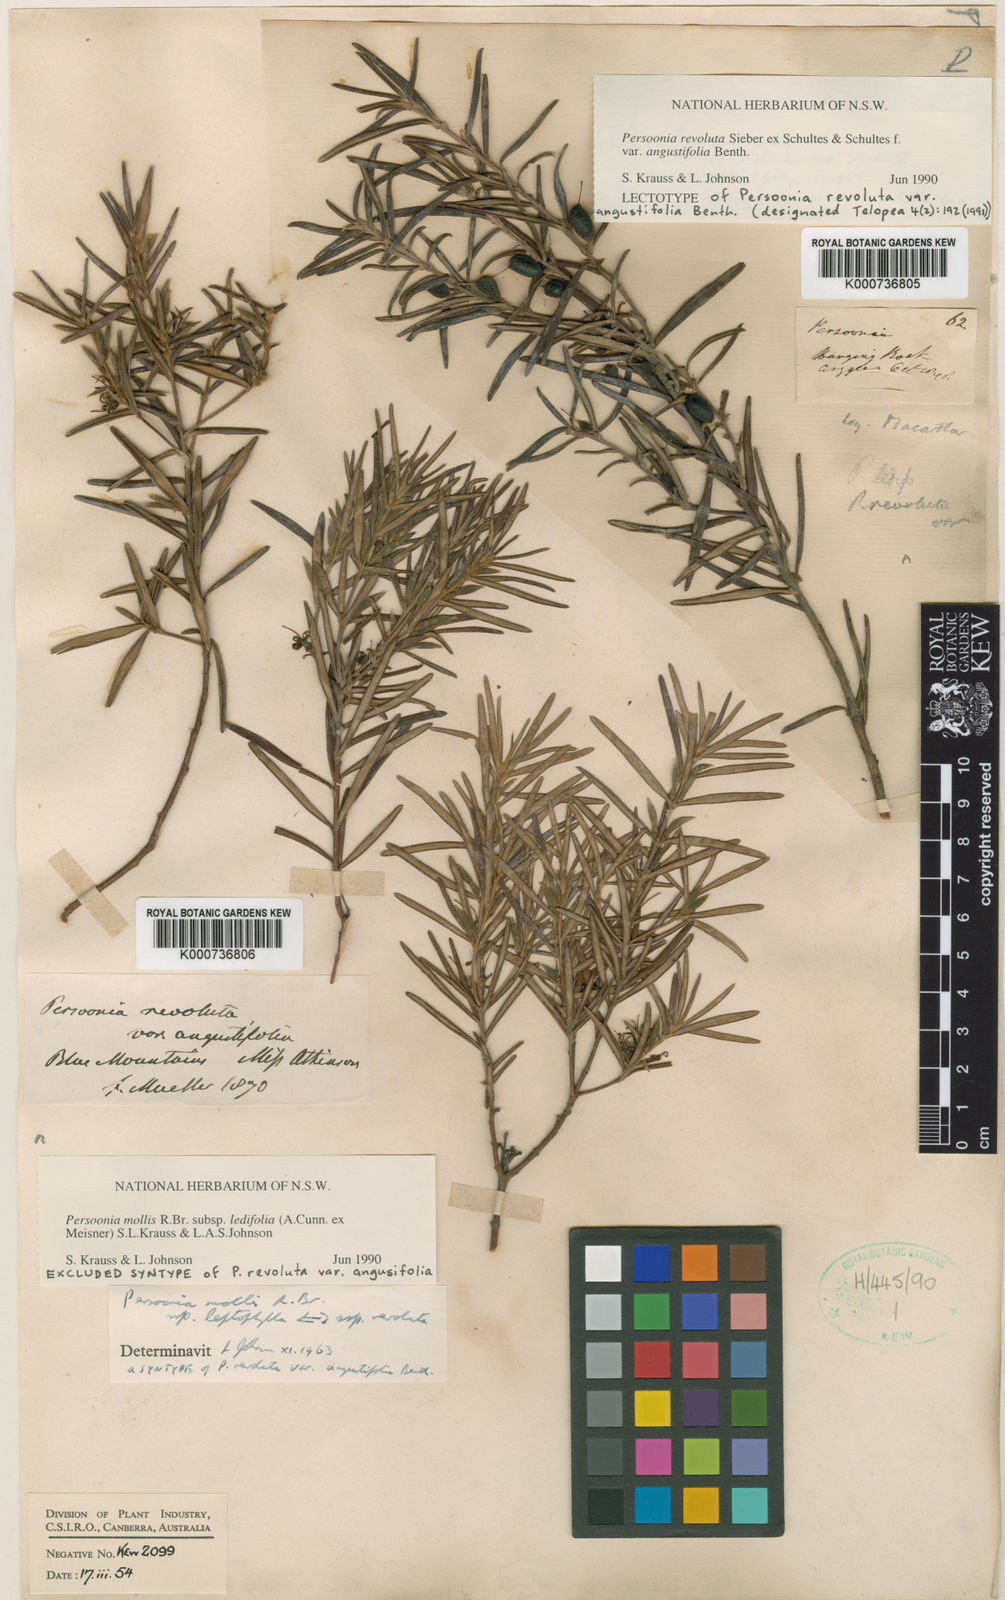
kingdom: Plantae
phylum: Tracheophyta
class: Magnoliopsida
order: Proteales
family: Proteaceae
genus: Persoonia
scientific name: Persoonia mollis
